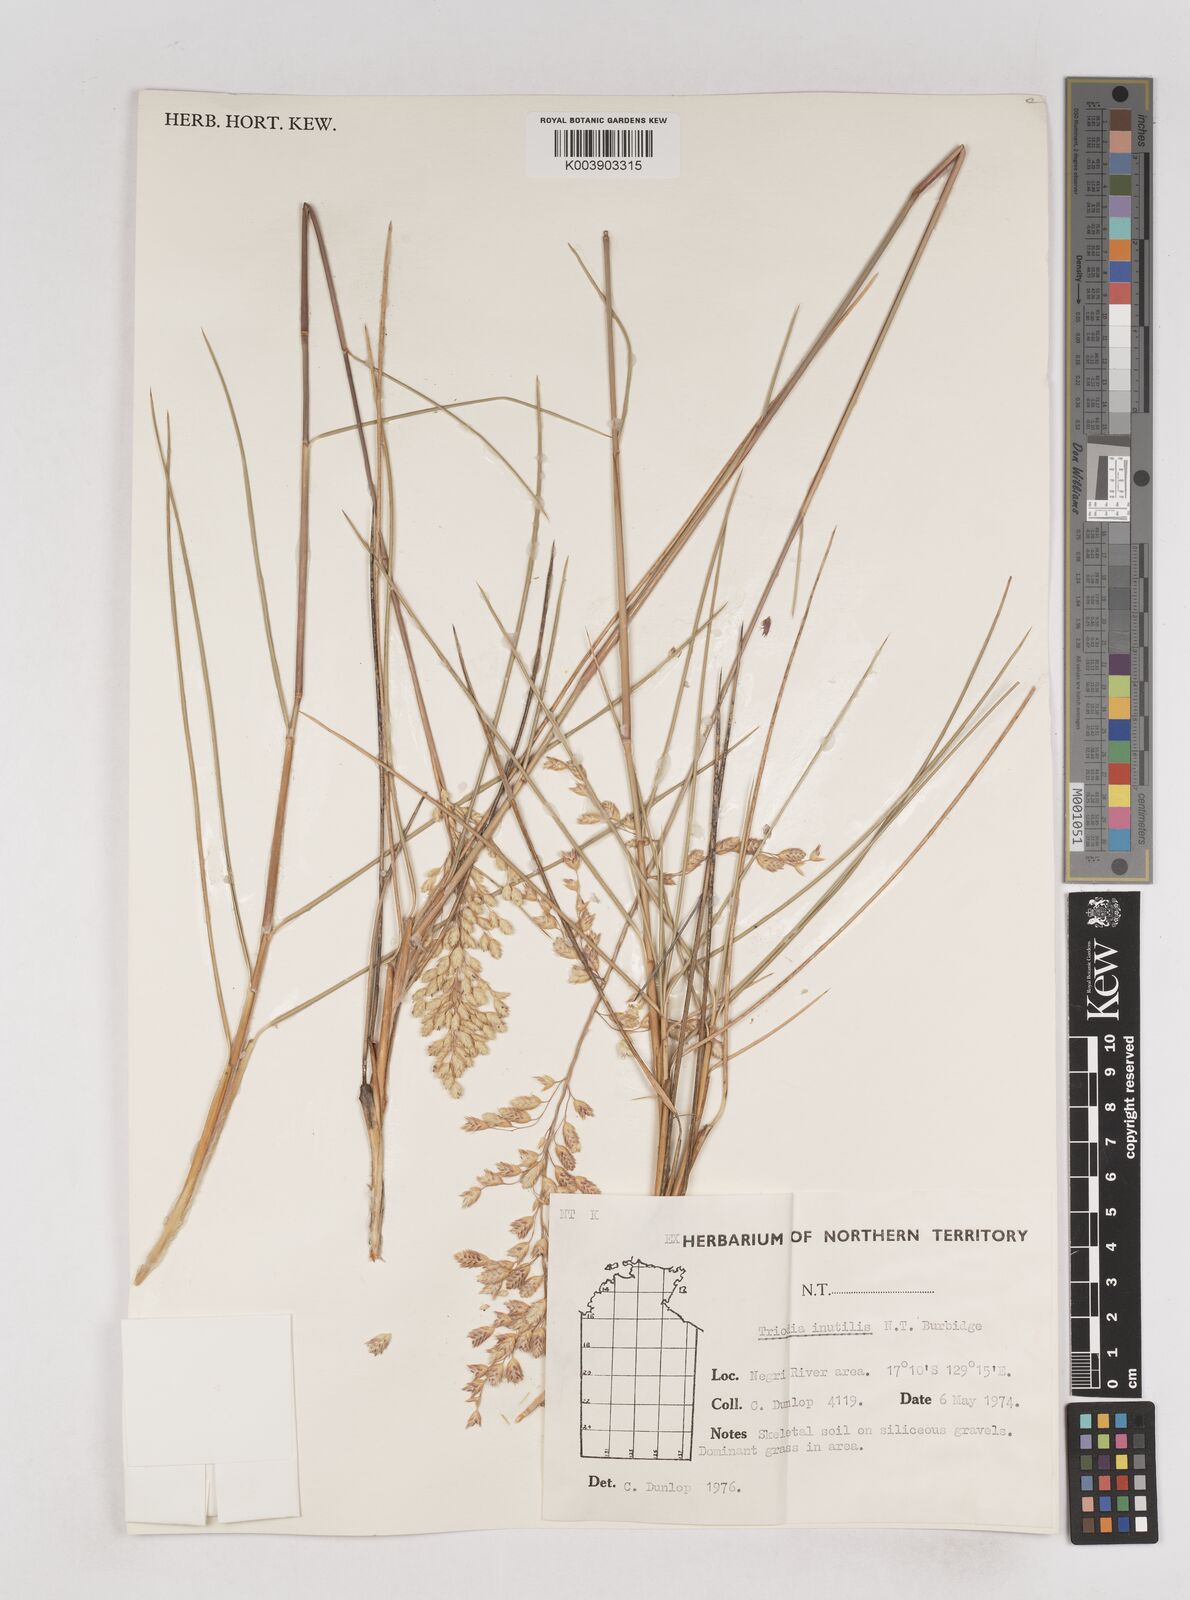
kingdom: Plantae
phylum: Tracheophyta
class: Liliopsida
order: Poales
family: Poaceae
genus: Triodia
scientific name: Triodia inutilis
